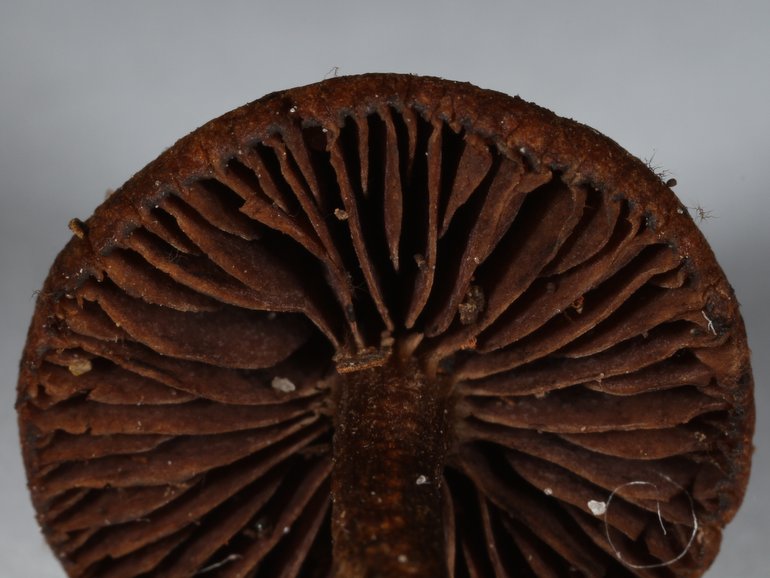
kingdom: Fungi
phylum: Basidiomycota
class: Agaricomycetes
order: Agaricales
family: Strophariaceae
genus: Deconica
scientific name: Deconica montana
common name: rødbrun stråhat
